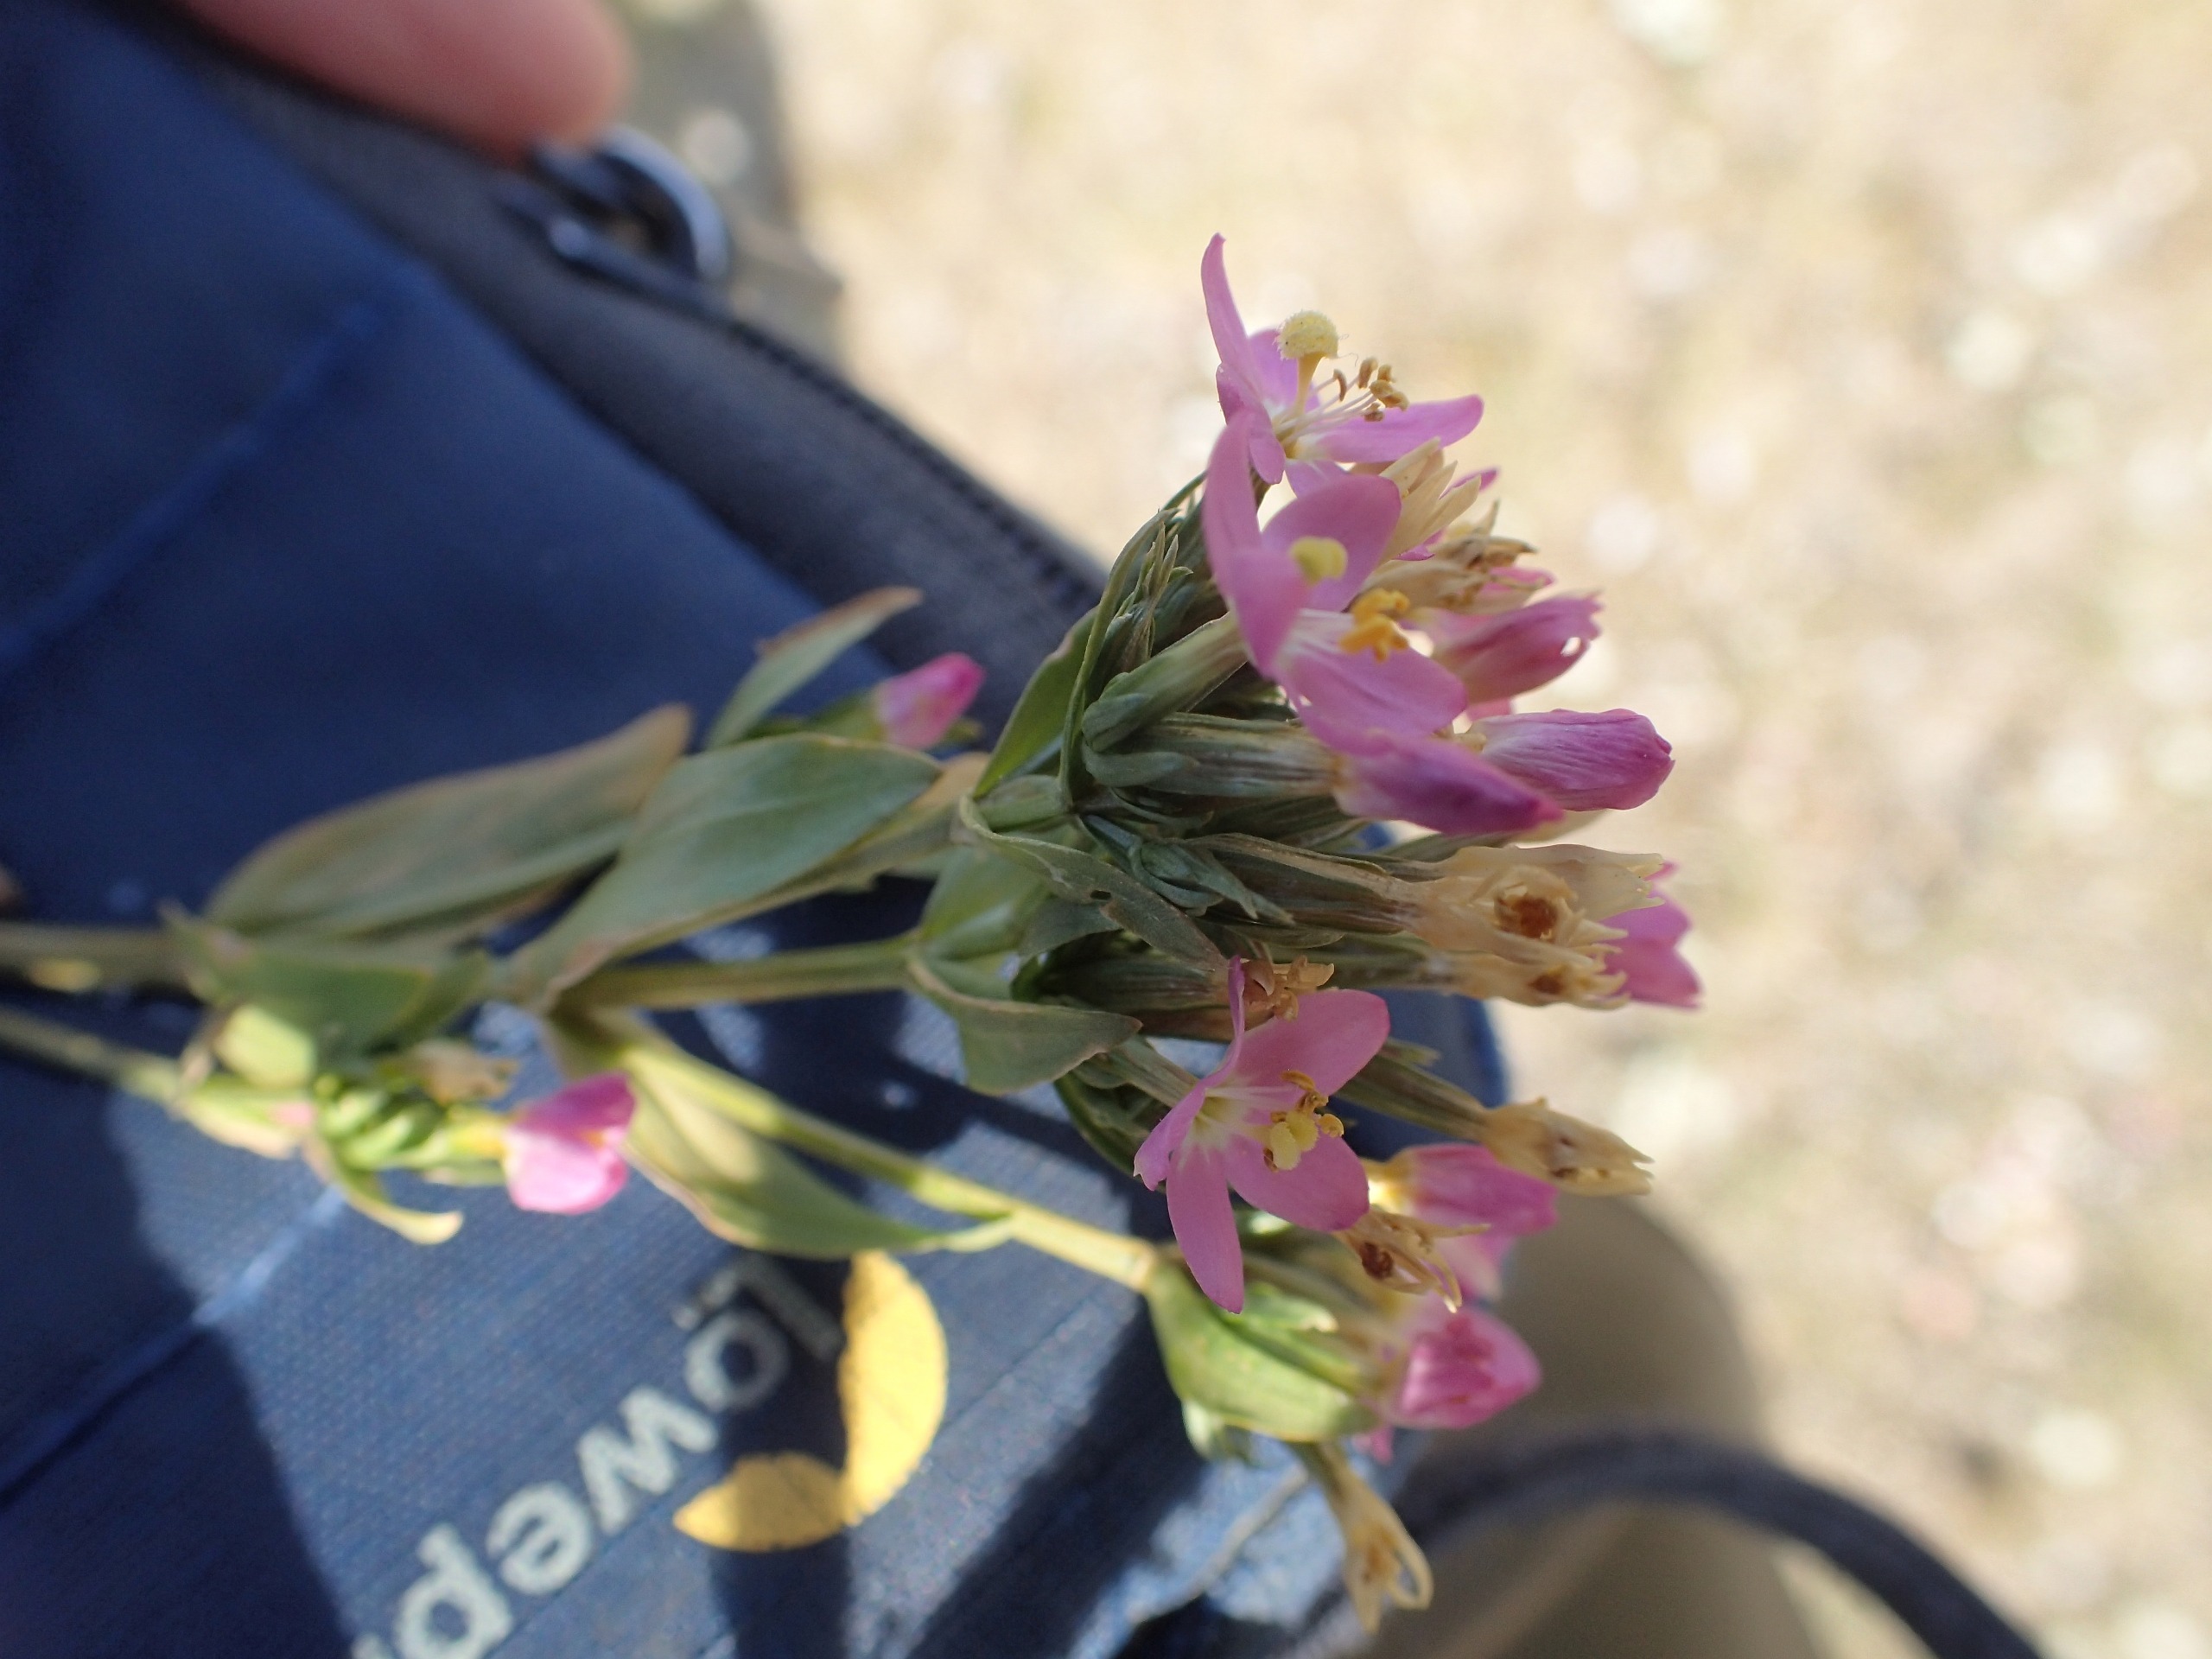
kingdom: Plantae
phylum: Tracheophyta
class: Magnoliopsida
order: Gentianales
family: Gentianaceae
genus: Centaurium
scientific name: Centaurium erythraea
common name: Mark-tusindgylden
